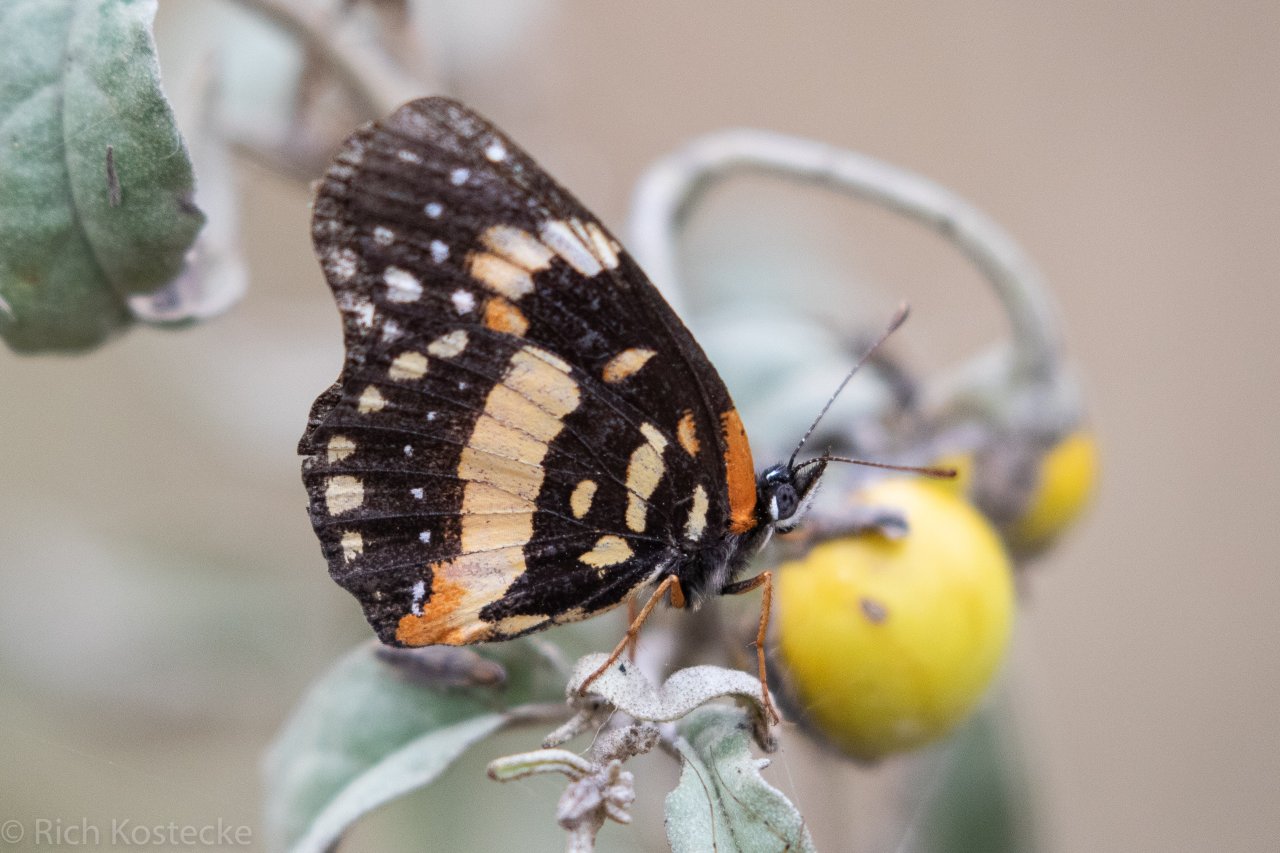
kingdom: Animalia
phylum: Arthropoda
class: Insecta
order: Lepidoptera
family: Nymphalidae
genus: Chlosyne
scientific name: Chlosyne lacinia
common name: Bordered Patch
